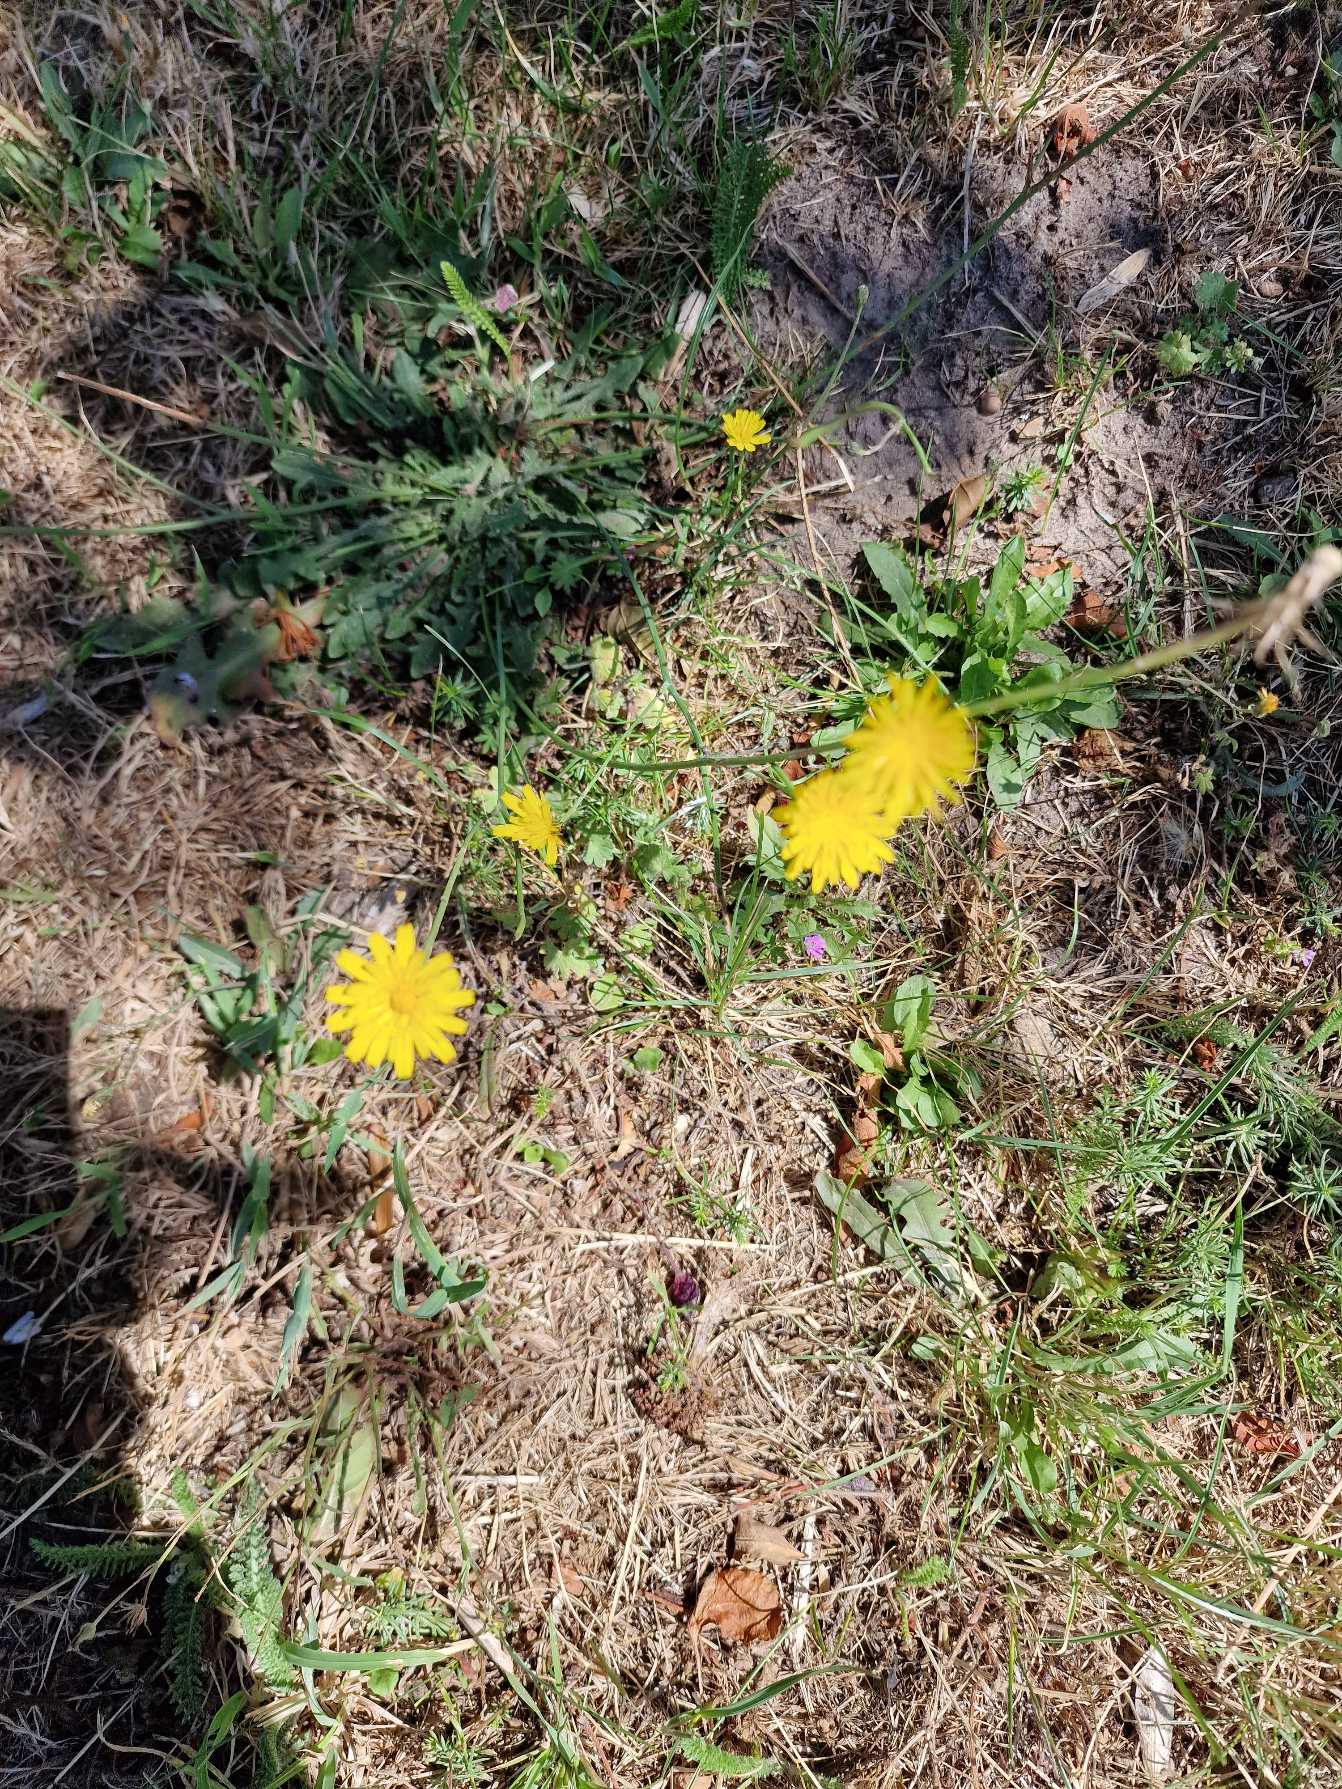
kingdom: Plantae
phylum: Tracheophyta
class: Magnoliopsida
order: Asterales
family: Asteraceae
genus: Hypochaeris
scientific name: Hypochaeris radicata
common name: Almindelig kongepen
